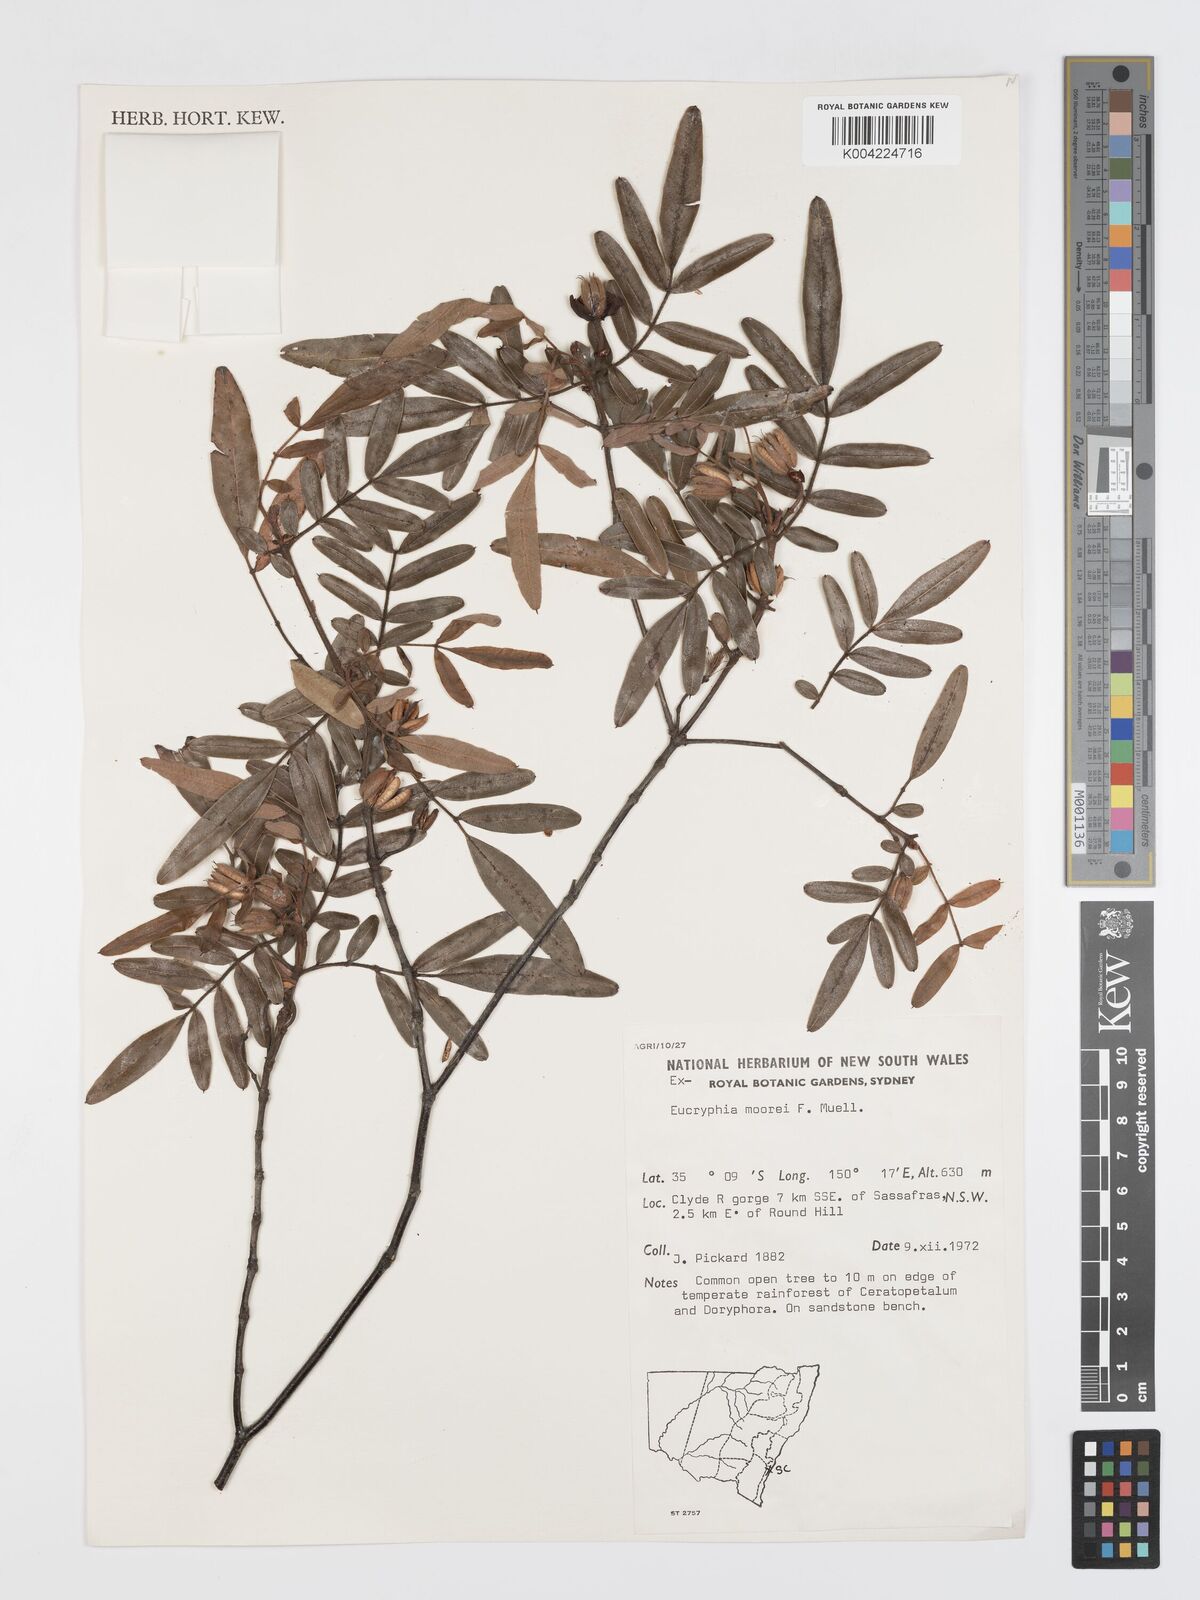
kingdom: Plantae
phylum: Tracheophyta
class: Magnoliopsida
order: Oxalidales
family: Cunoniaceae
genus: Eucryphia
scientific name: Eucryphia moorei
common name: Acacia-plum
